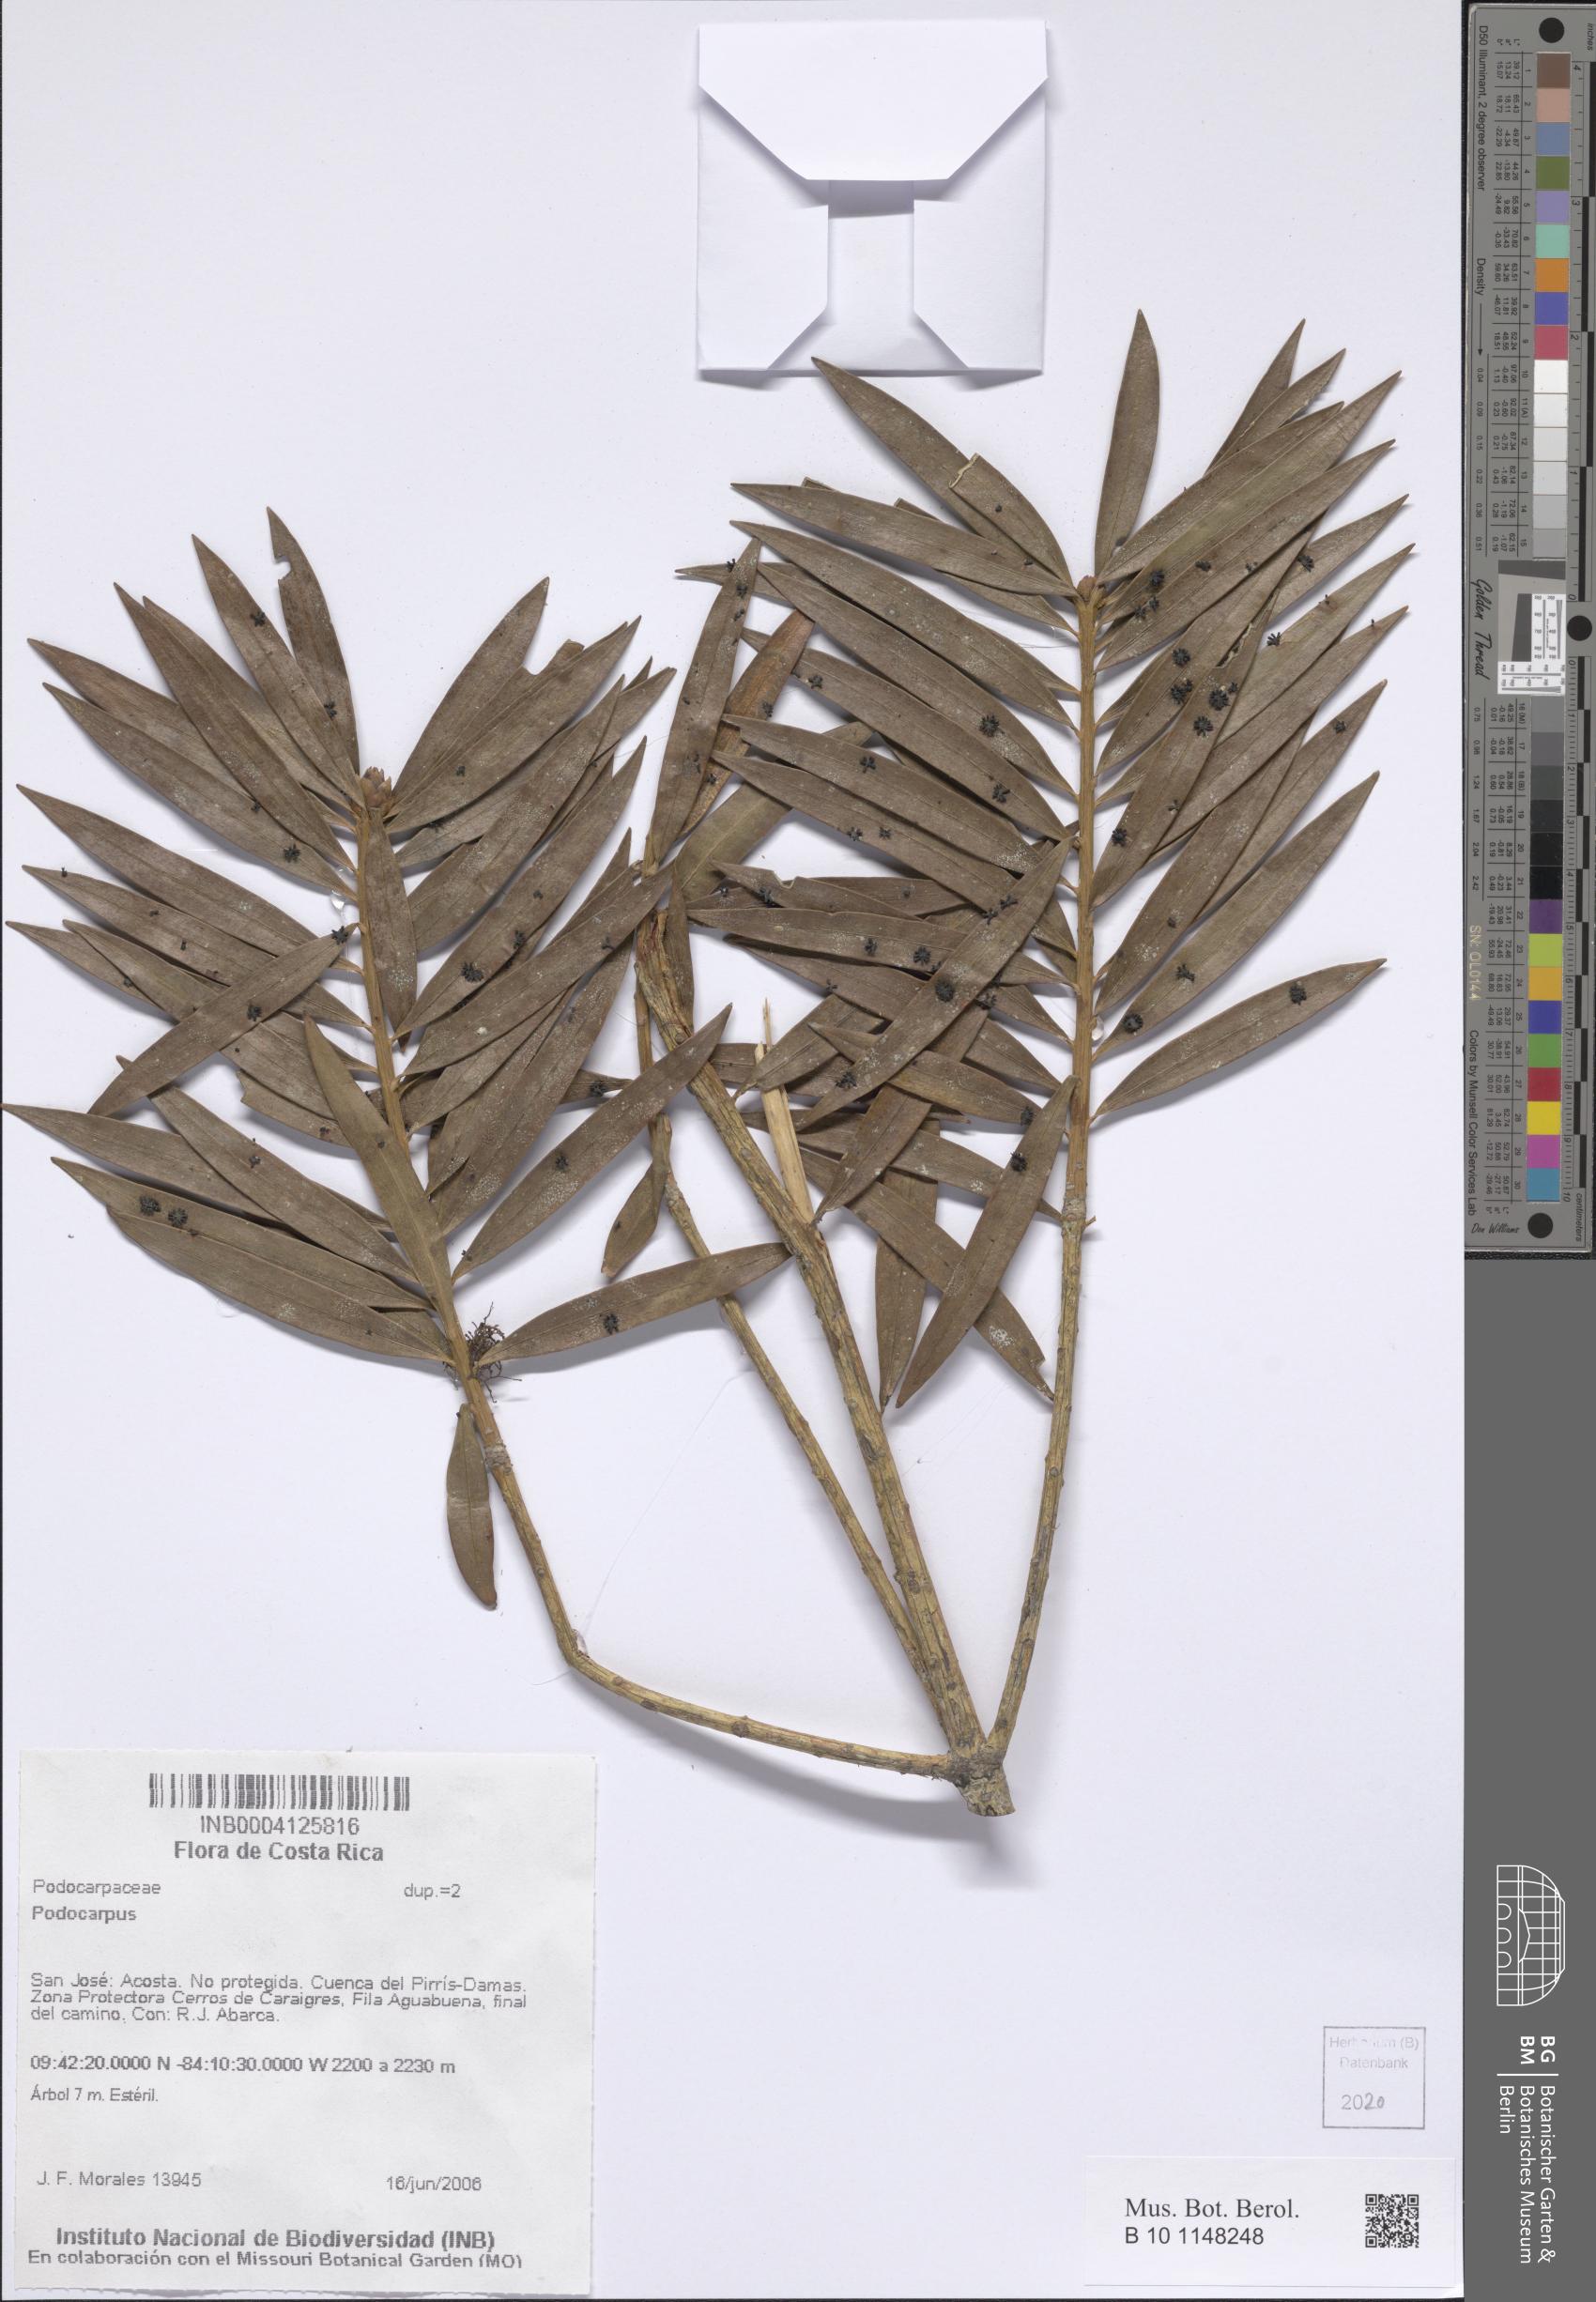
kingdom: Plantae
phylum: Tracheophyta
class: Pinopsida
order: Pinales
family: Podocarpaceae
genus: Podocarpus
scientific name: Podocarpus
